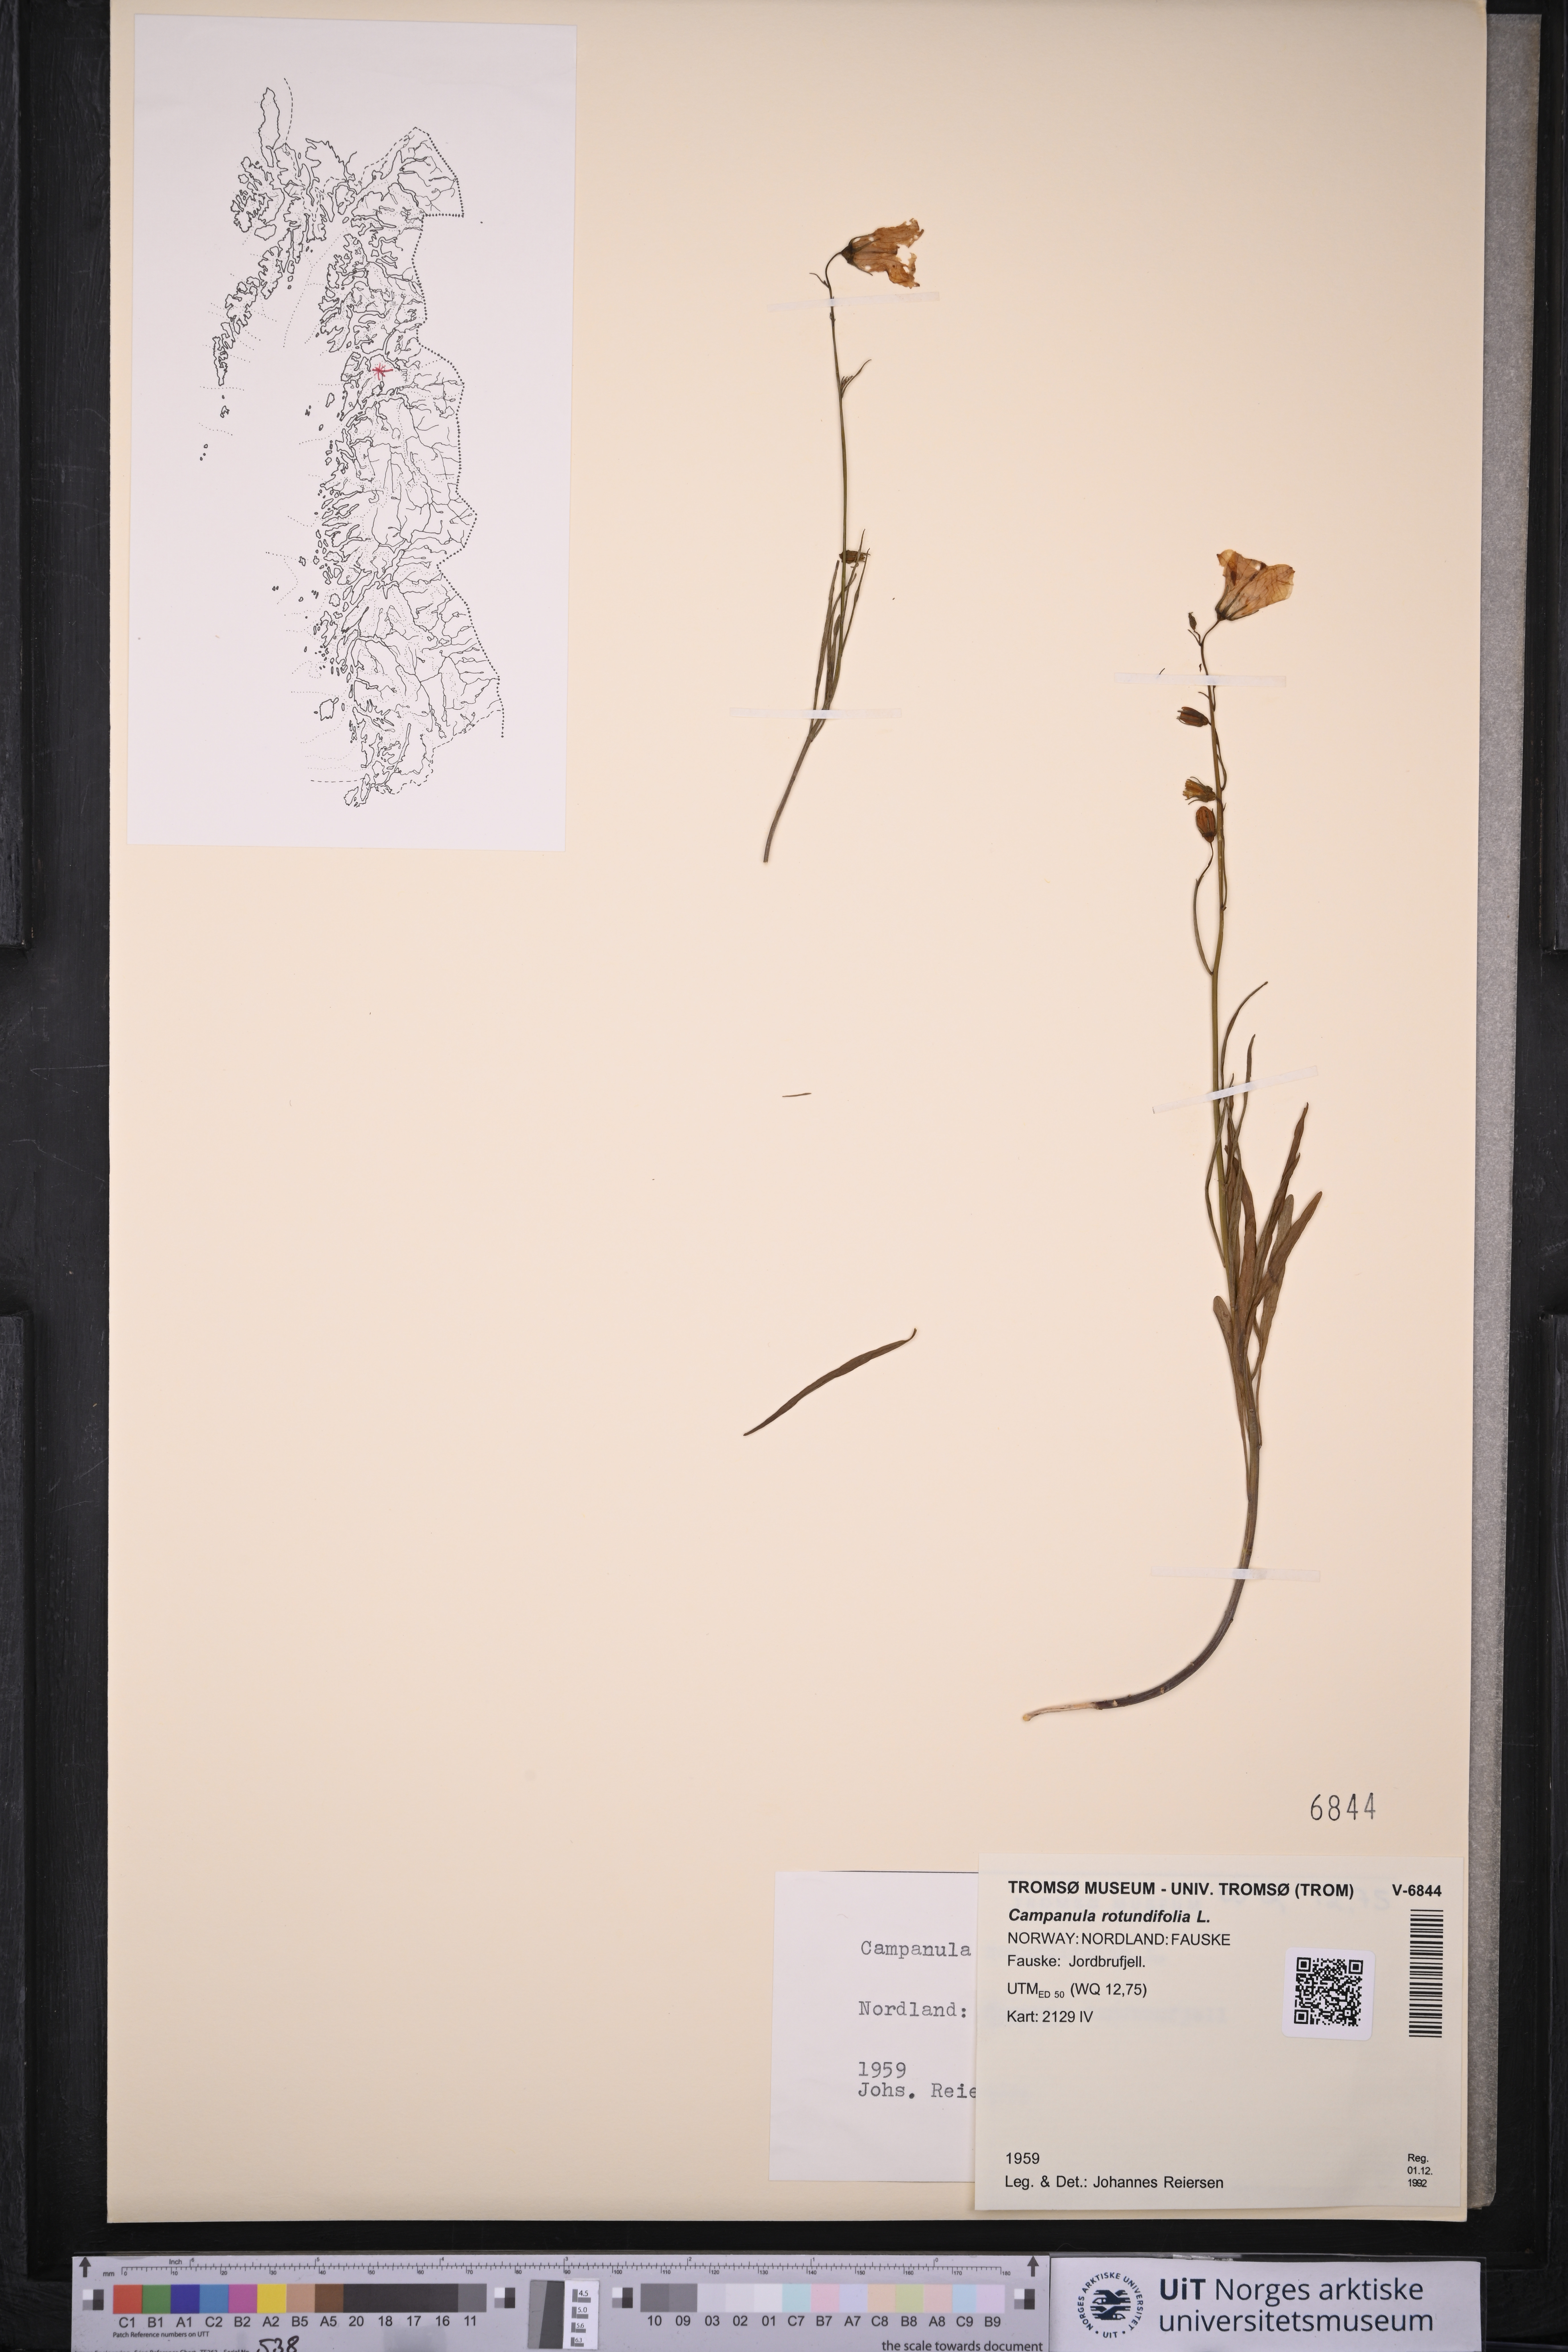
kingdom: Plantae
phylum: Tracheophyta
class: Magnoliopsida
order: Asterales
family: Campanulaceae
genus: Campanula
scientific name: Campanula rotundifolia
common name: Harebell
